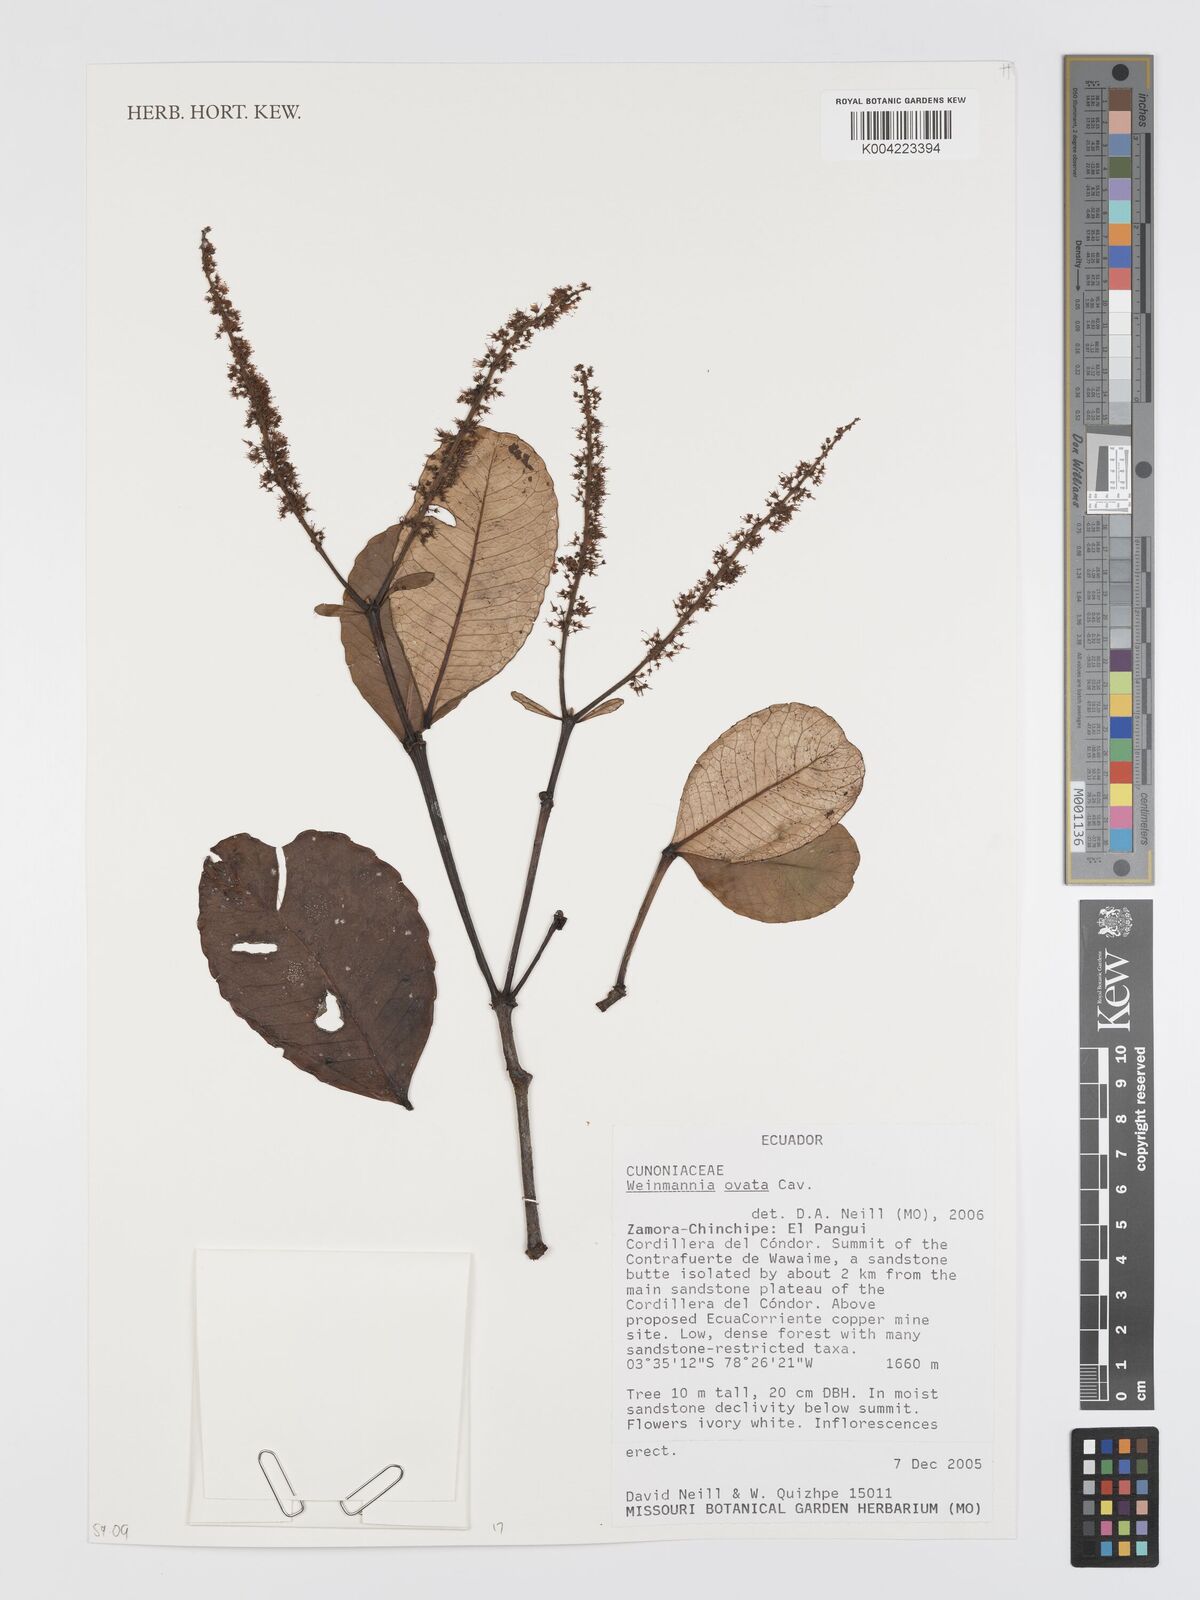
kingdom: Plantae
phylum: Tracheophyta
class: Magnoliopsida
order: Oxalidales
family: Cunoniaceae
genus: Weinmannia
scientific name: Weinmannia ovata
